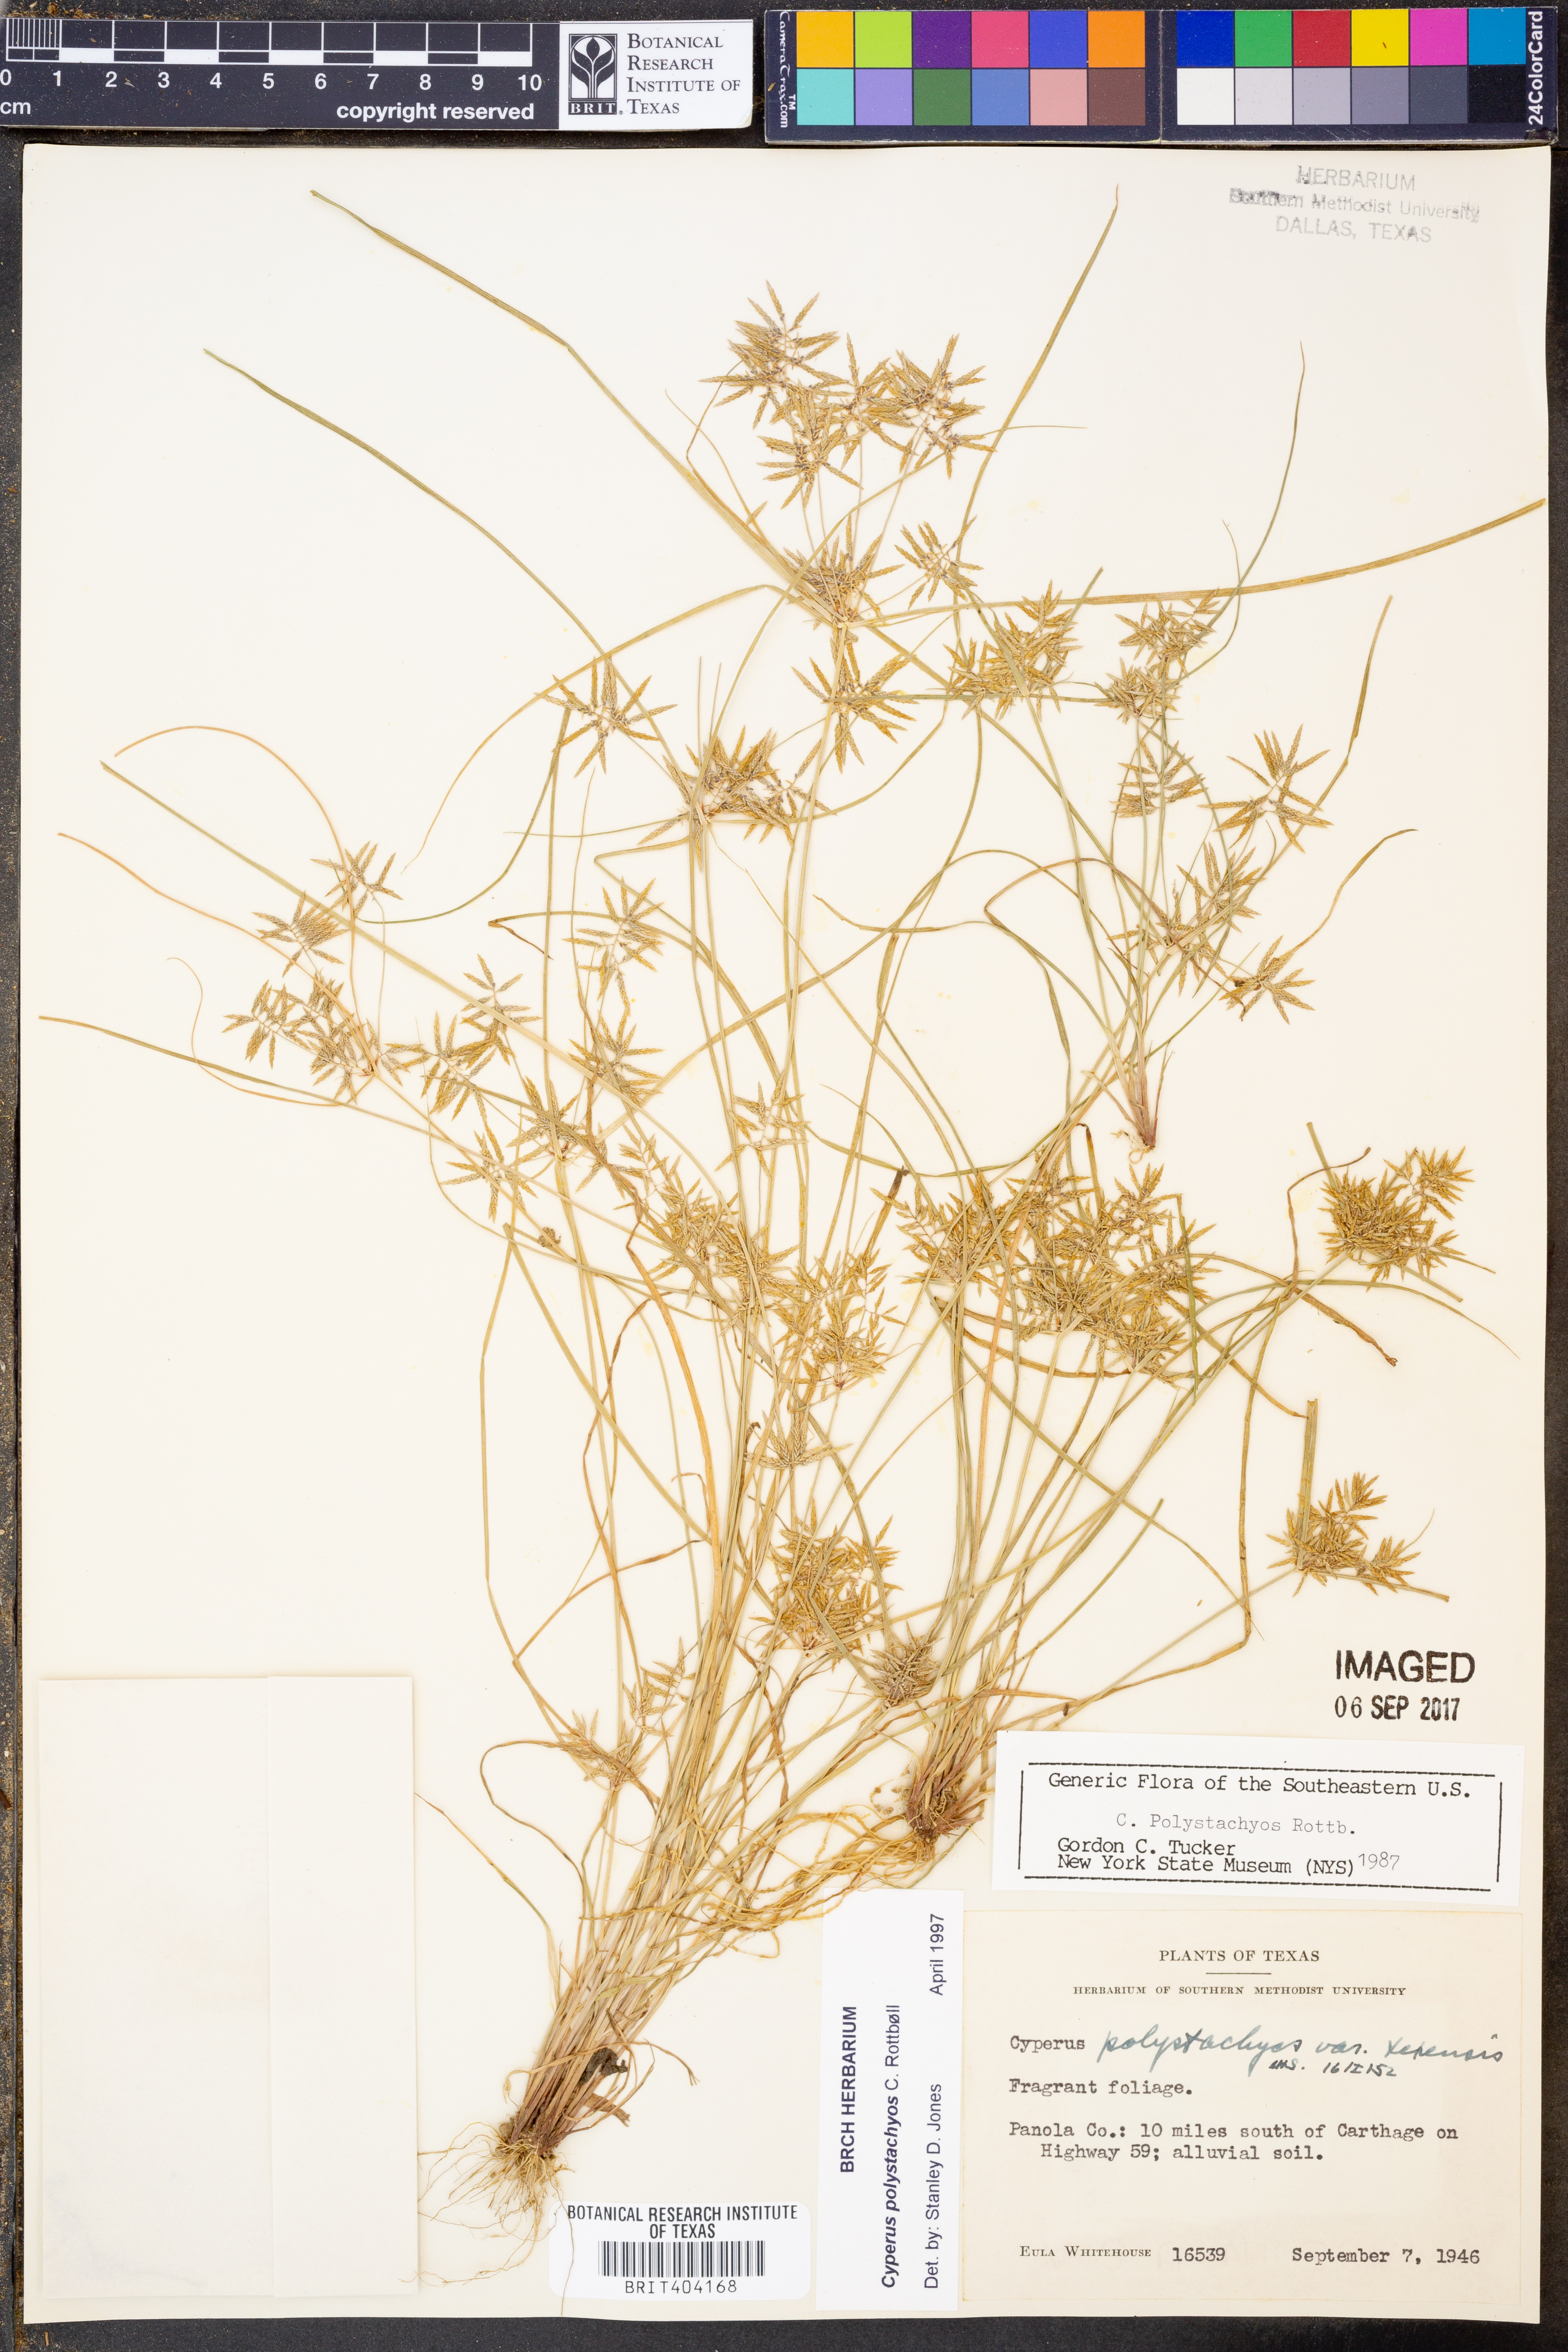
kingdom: Plantae
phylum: Tracheophyta
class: Liliopsida
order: Poales
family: Cyperaceae
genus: Cyperus
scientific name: Cyperus polystachyos
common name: Bunchy flat sedge
